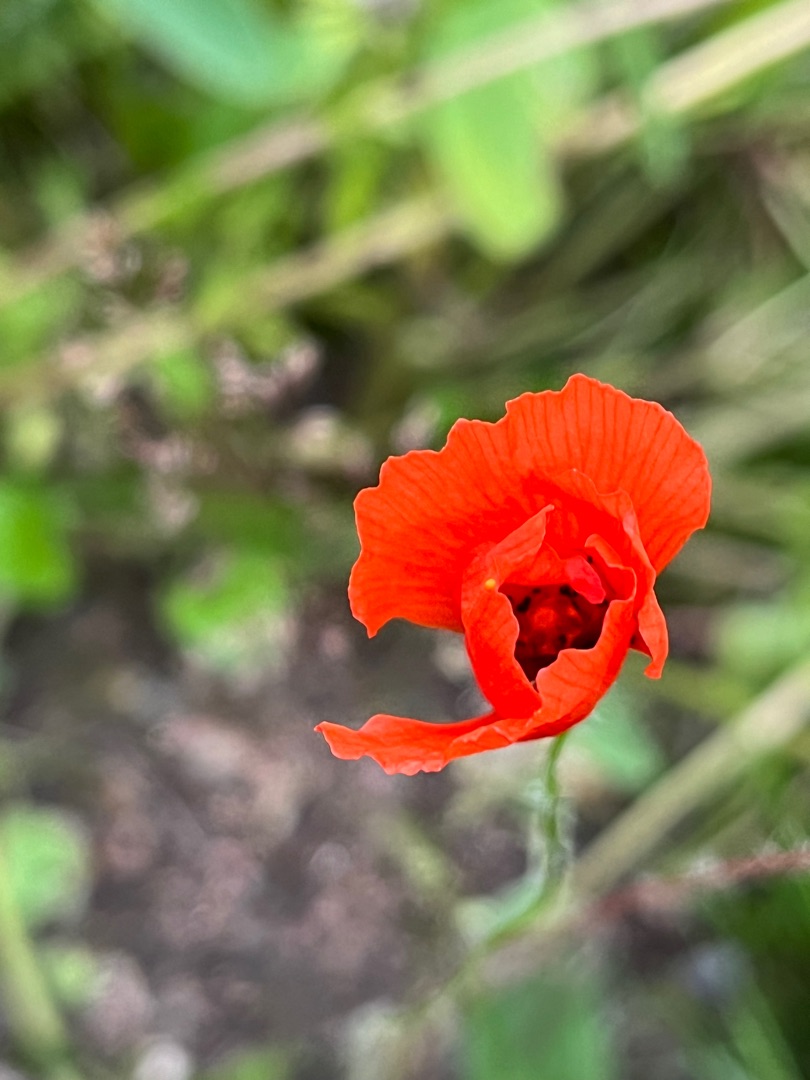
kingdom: Plantae
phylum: Tracheophyta
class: Magnoliopsida
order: Ranunculales
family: Papaveraceae
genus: Papaver
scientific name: Papaver rhoeas
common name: Korn-valmue
